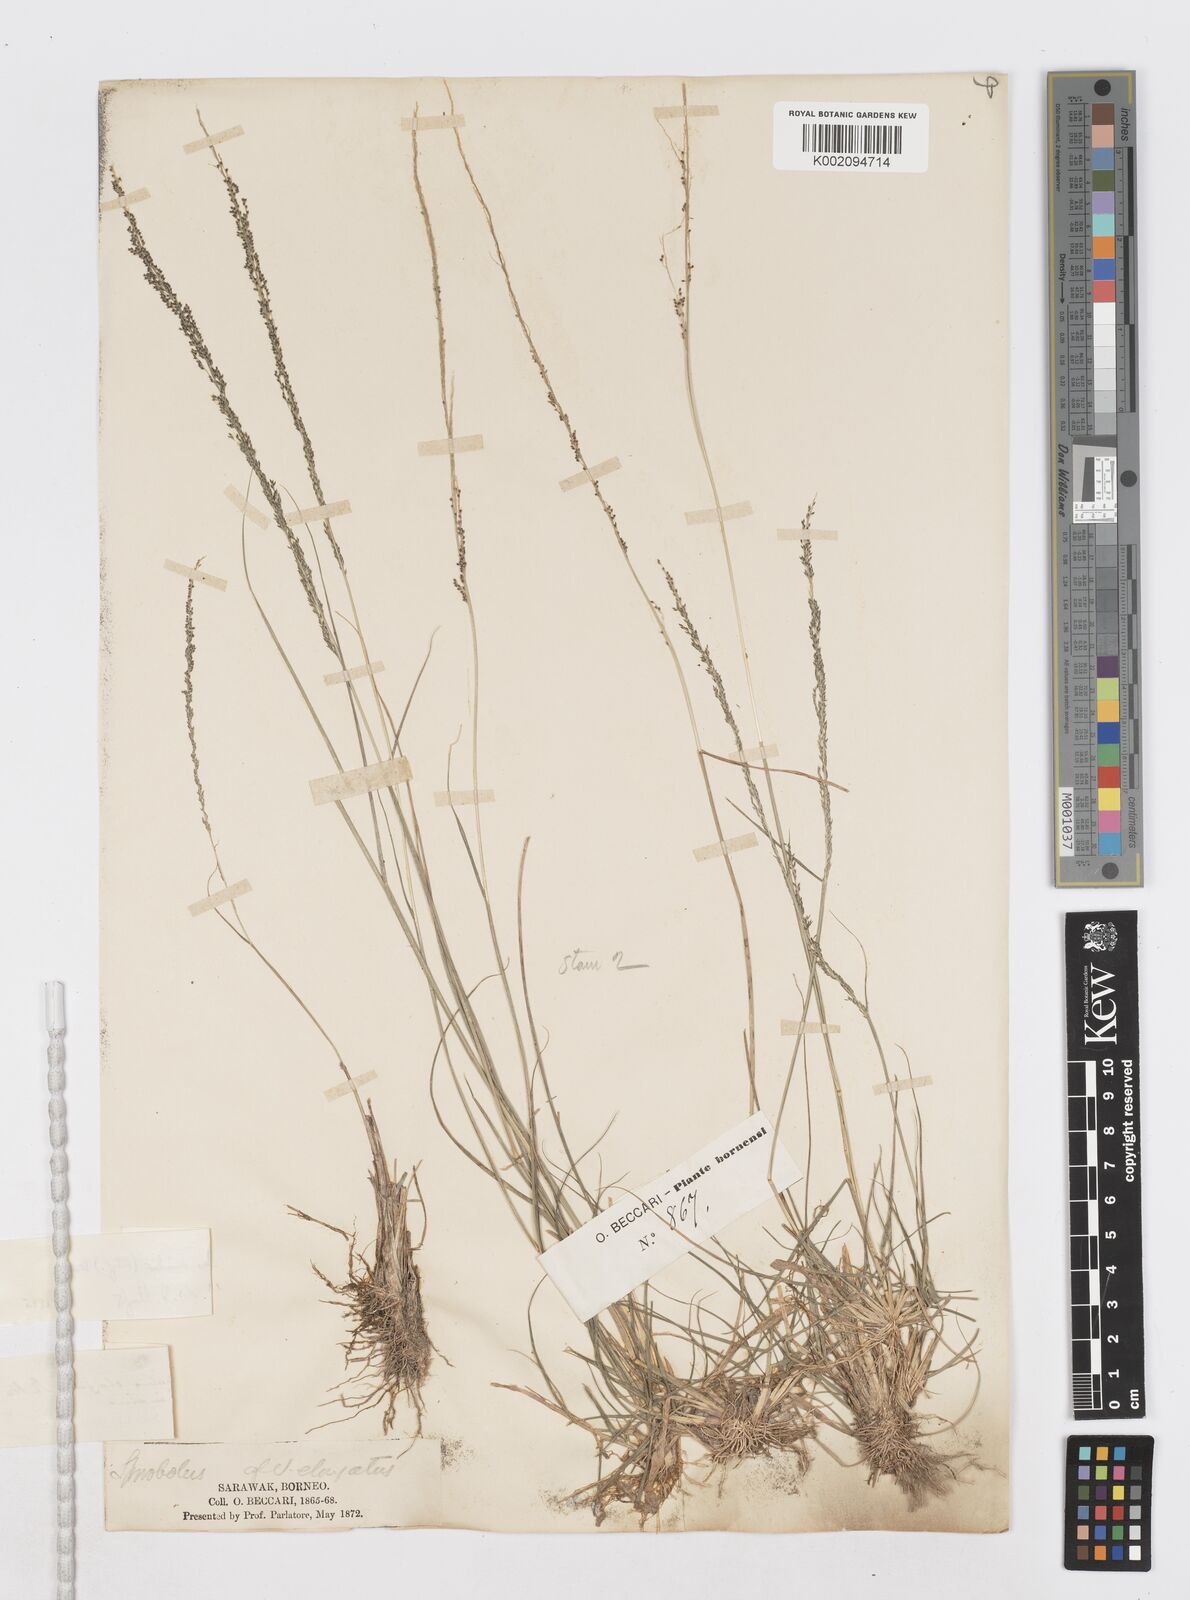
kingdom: Plantae
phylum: Tracheophyta
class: Liliopsida
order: Poales
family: Poaceae
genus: Sporobolus
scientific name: Sporobolus diandrus
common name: Tussock dropseed
